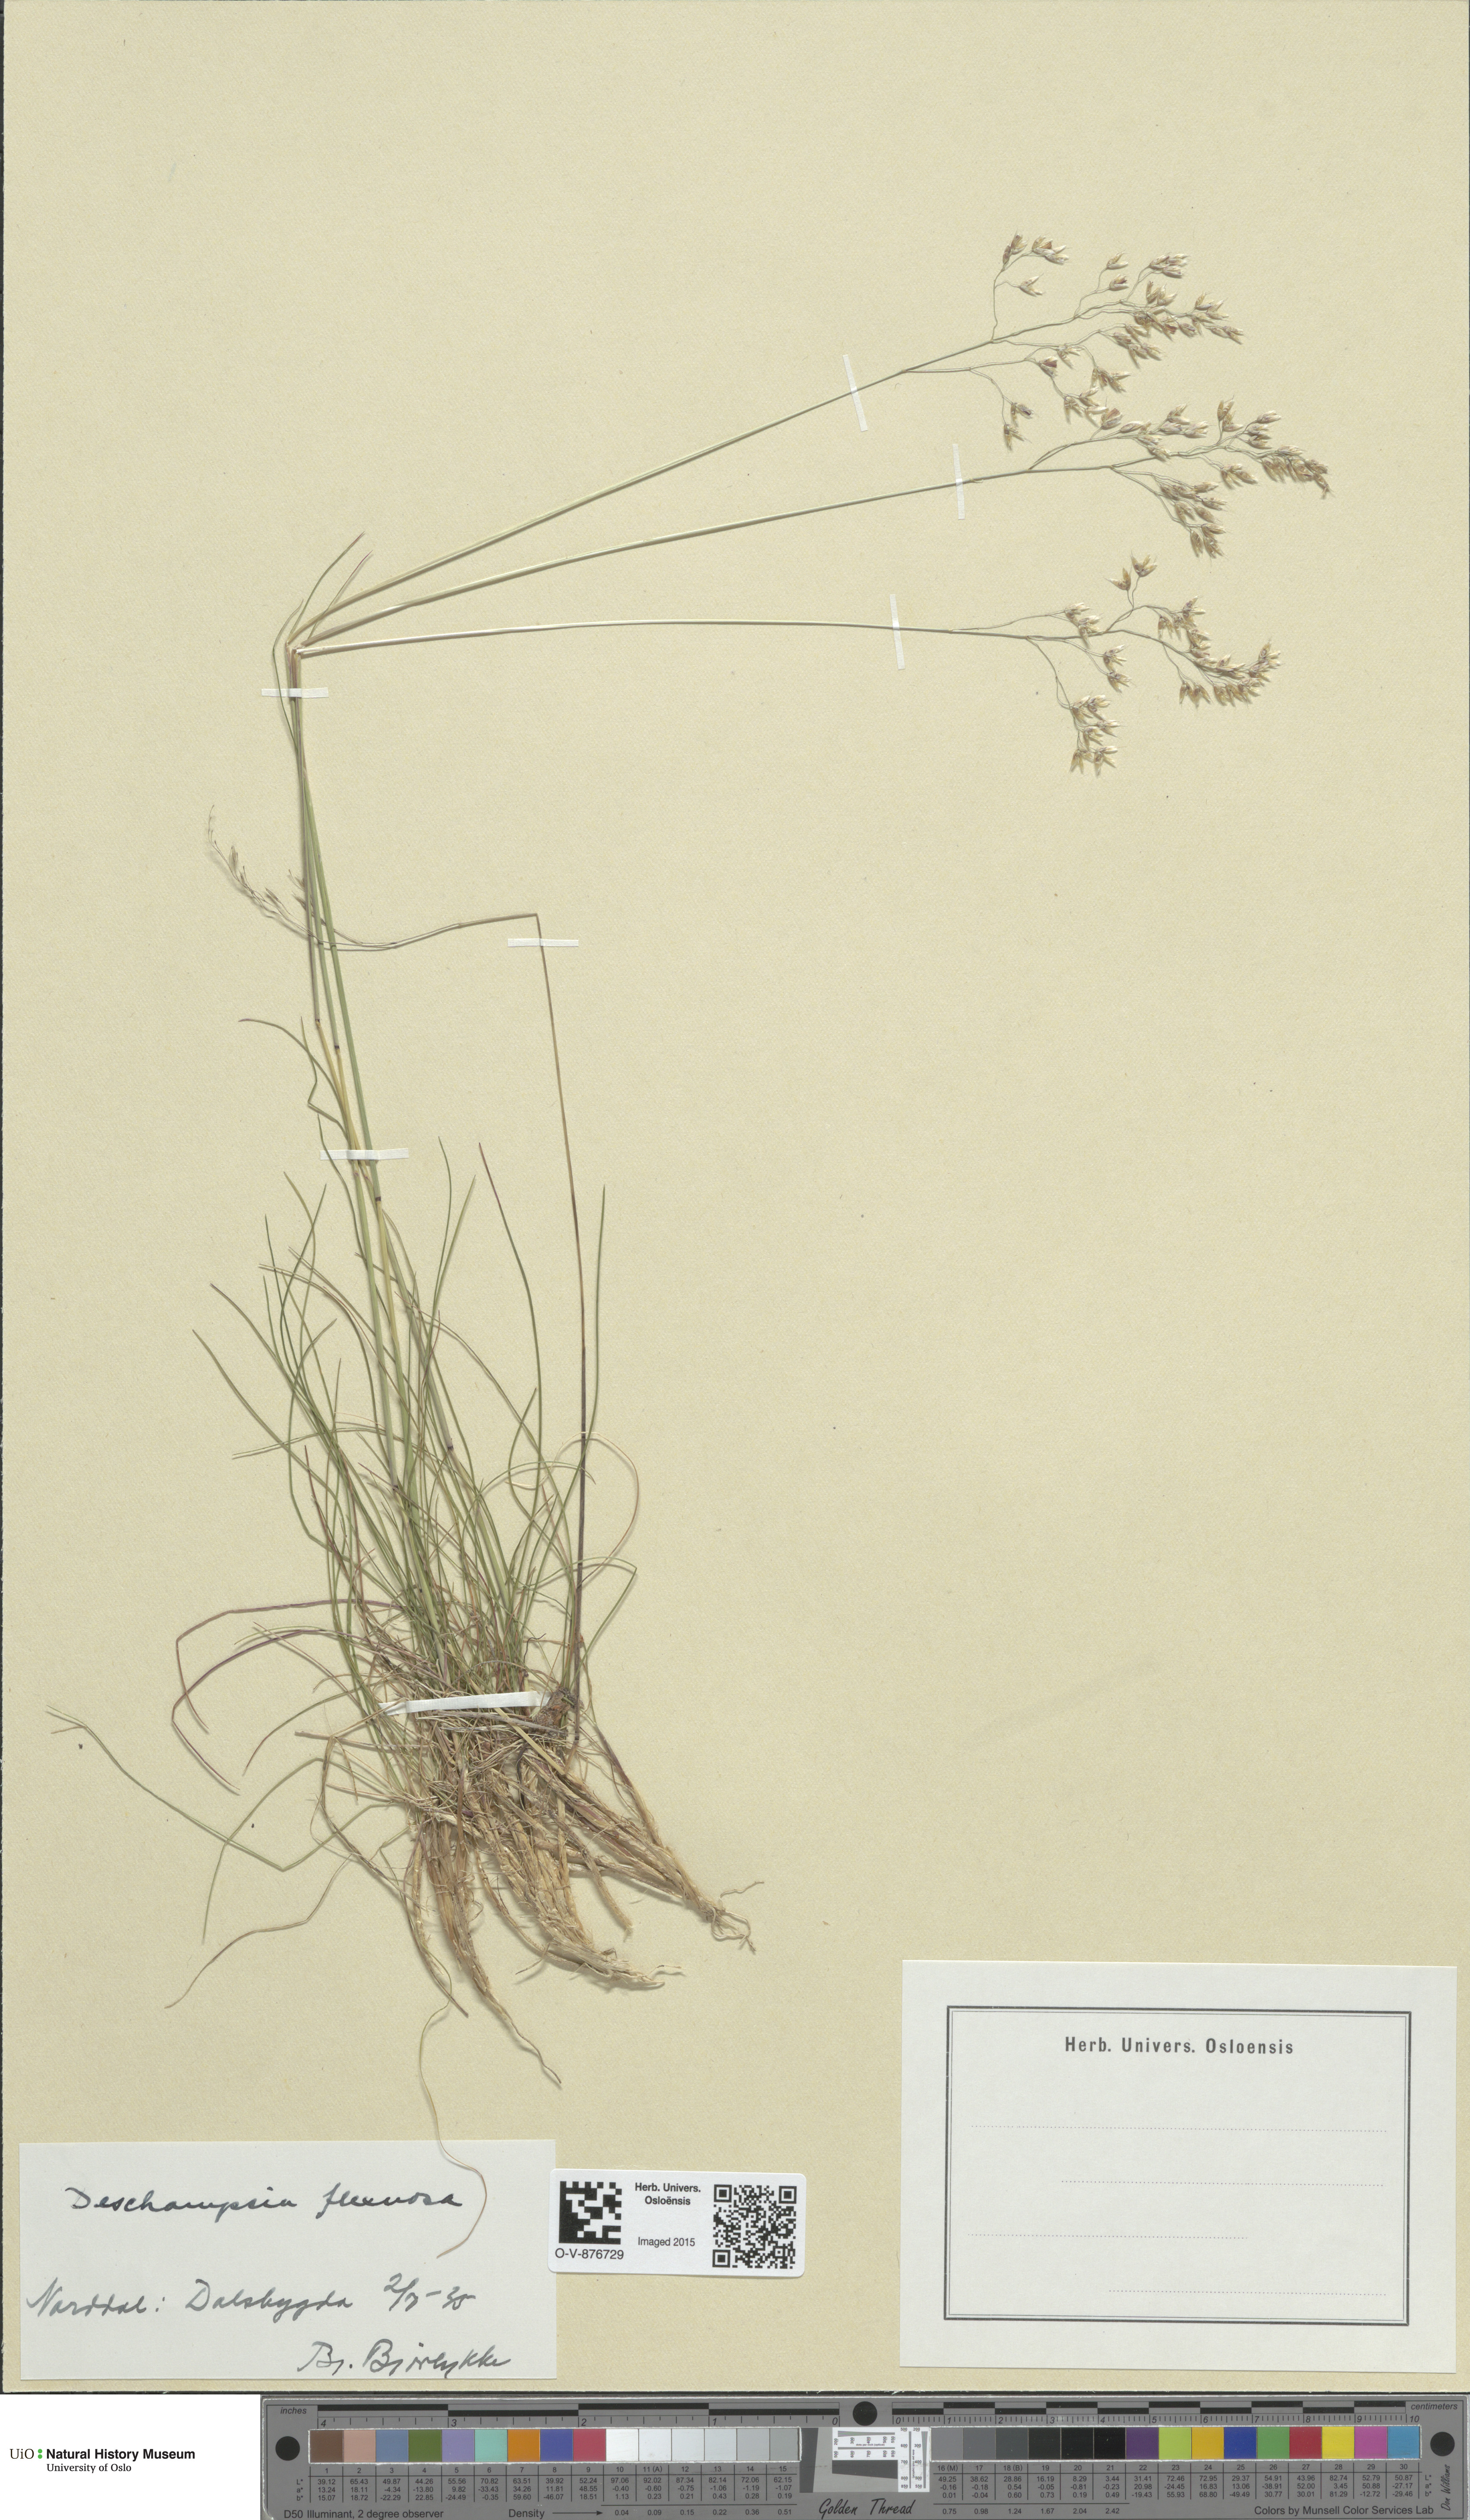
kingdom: Plantae
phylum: Tracheophyta
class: Liliopsida
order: Poales
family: Poaceae
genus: Avenella
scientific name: Avenella flexuosa
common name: Wavy hairgrass
